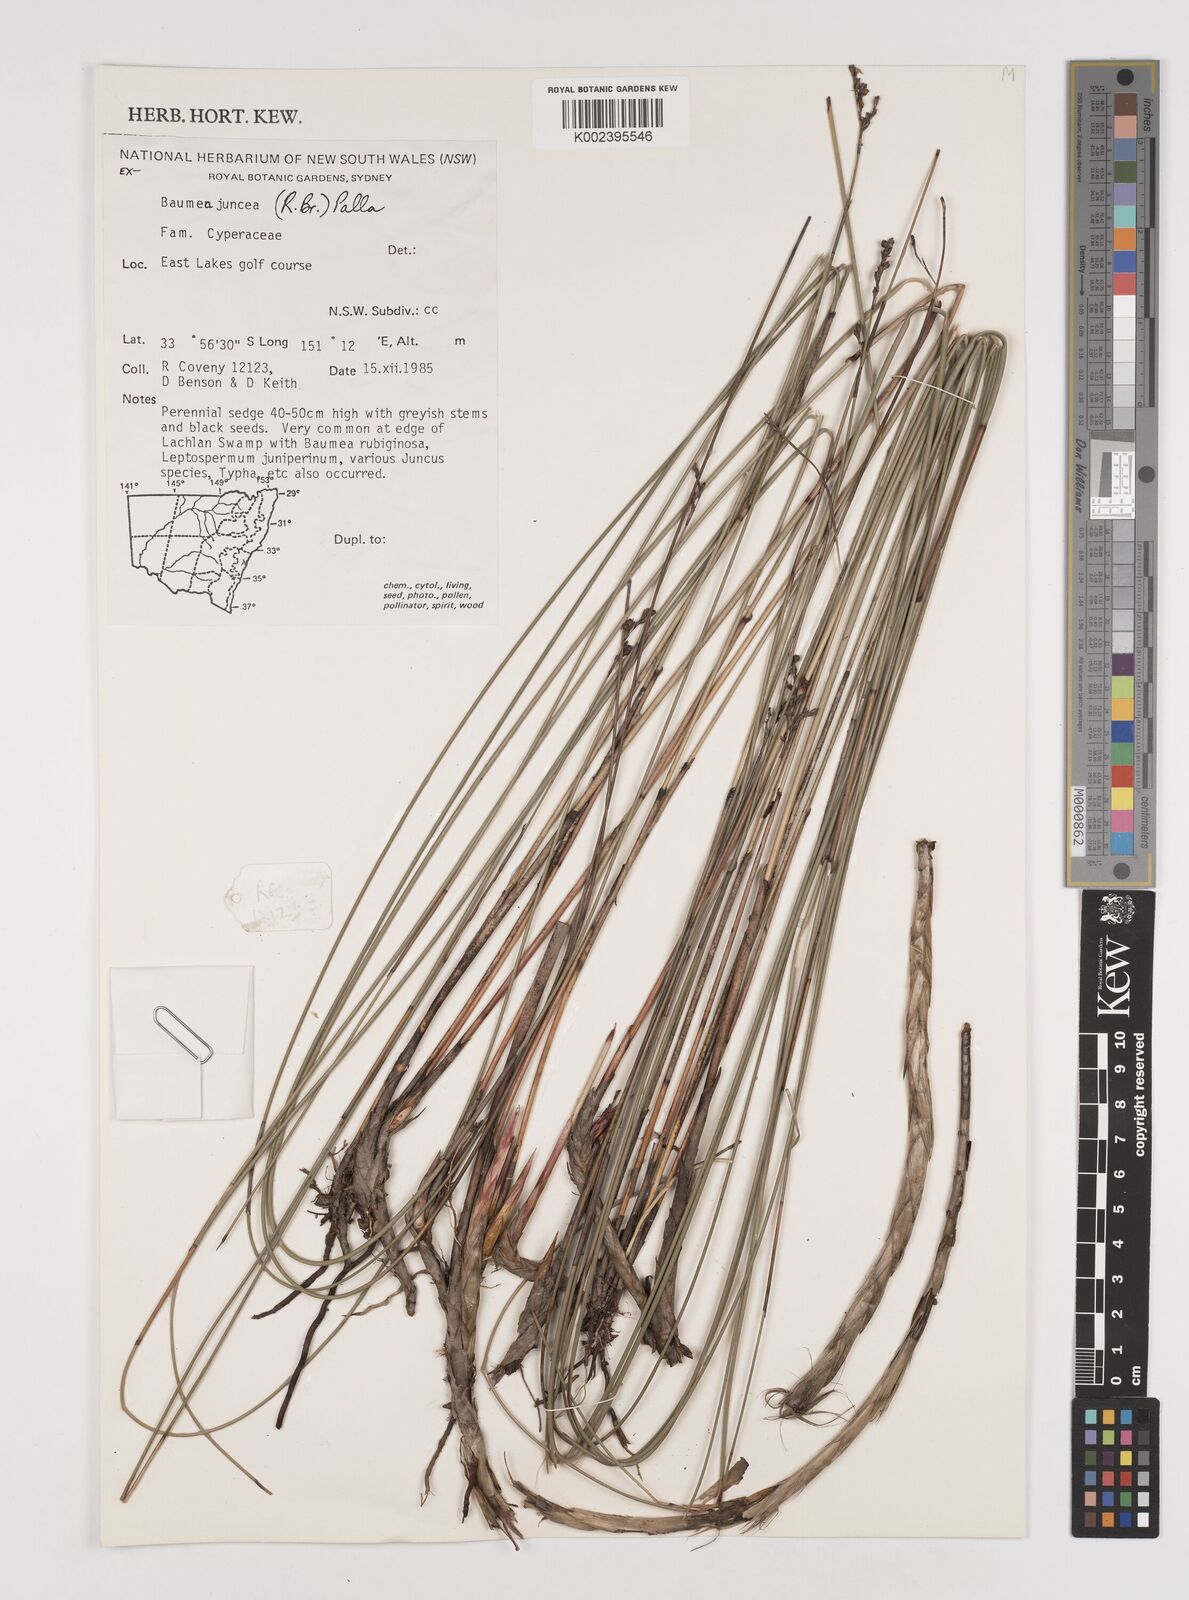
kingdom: Plantae
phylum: Tracheophyta
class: Liliopsida
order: Poales
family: Cyperaceae
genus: Machaerina
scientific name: Machaerina juncea
